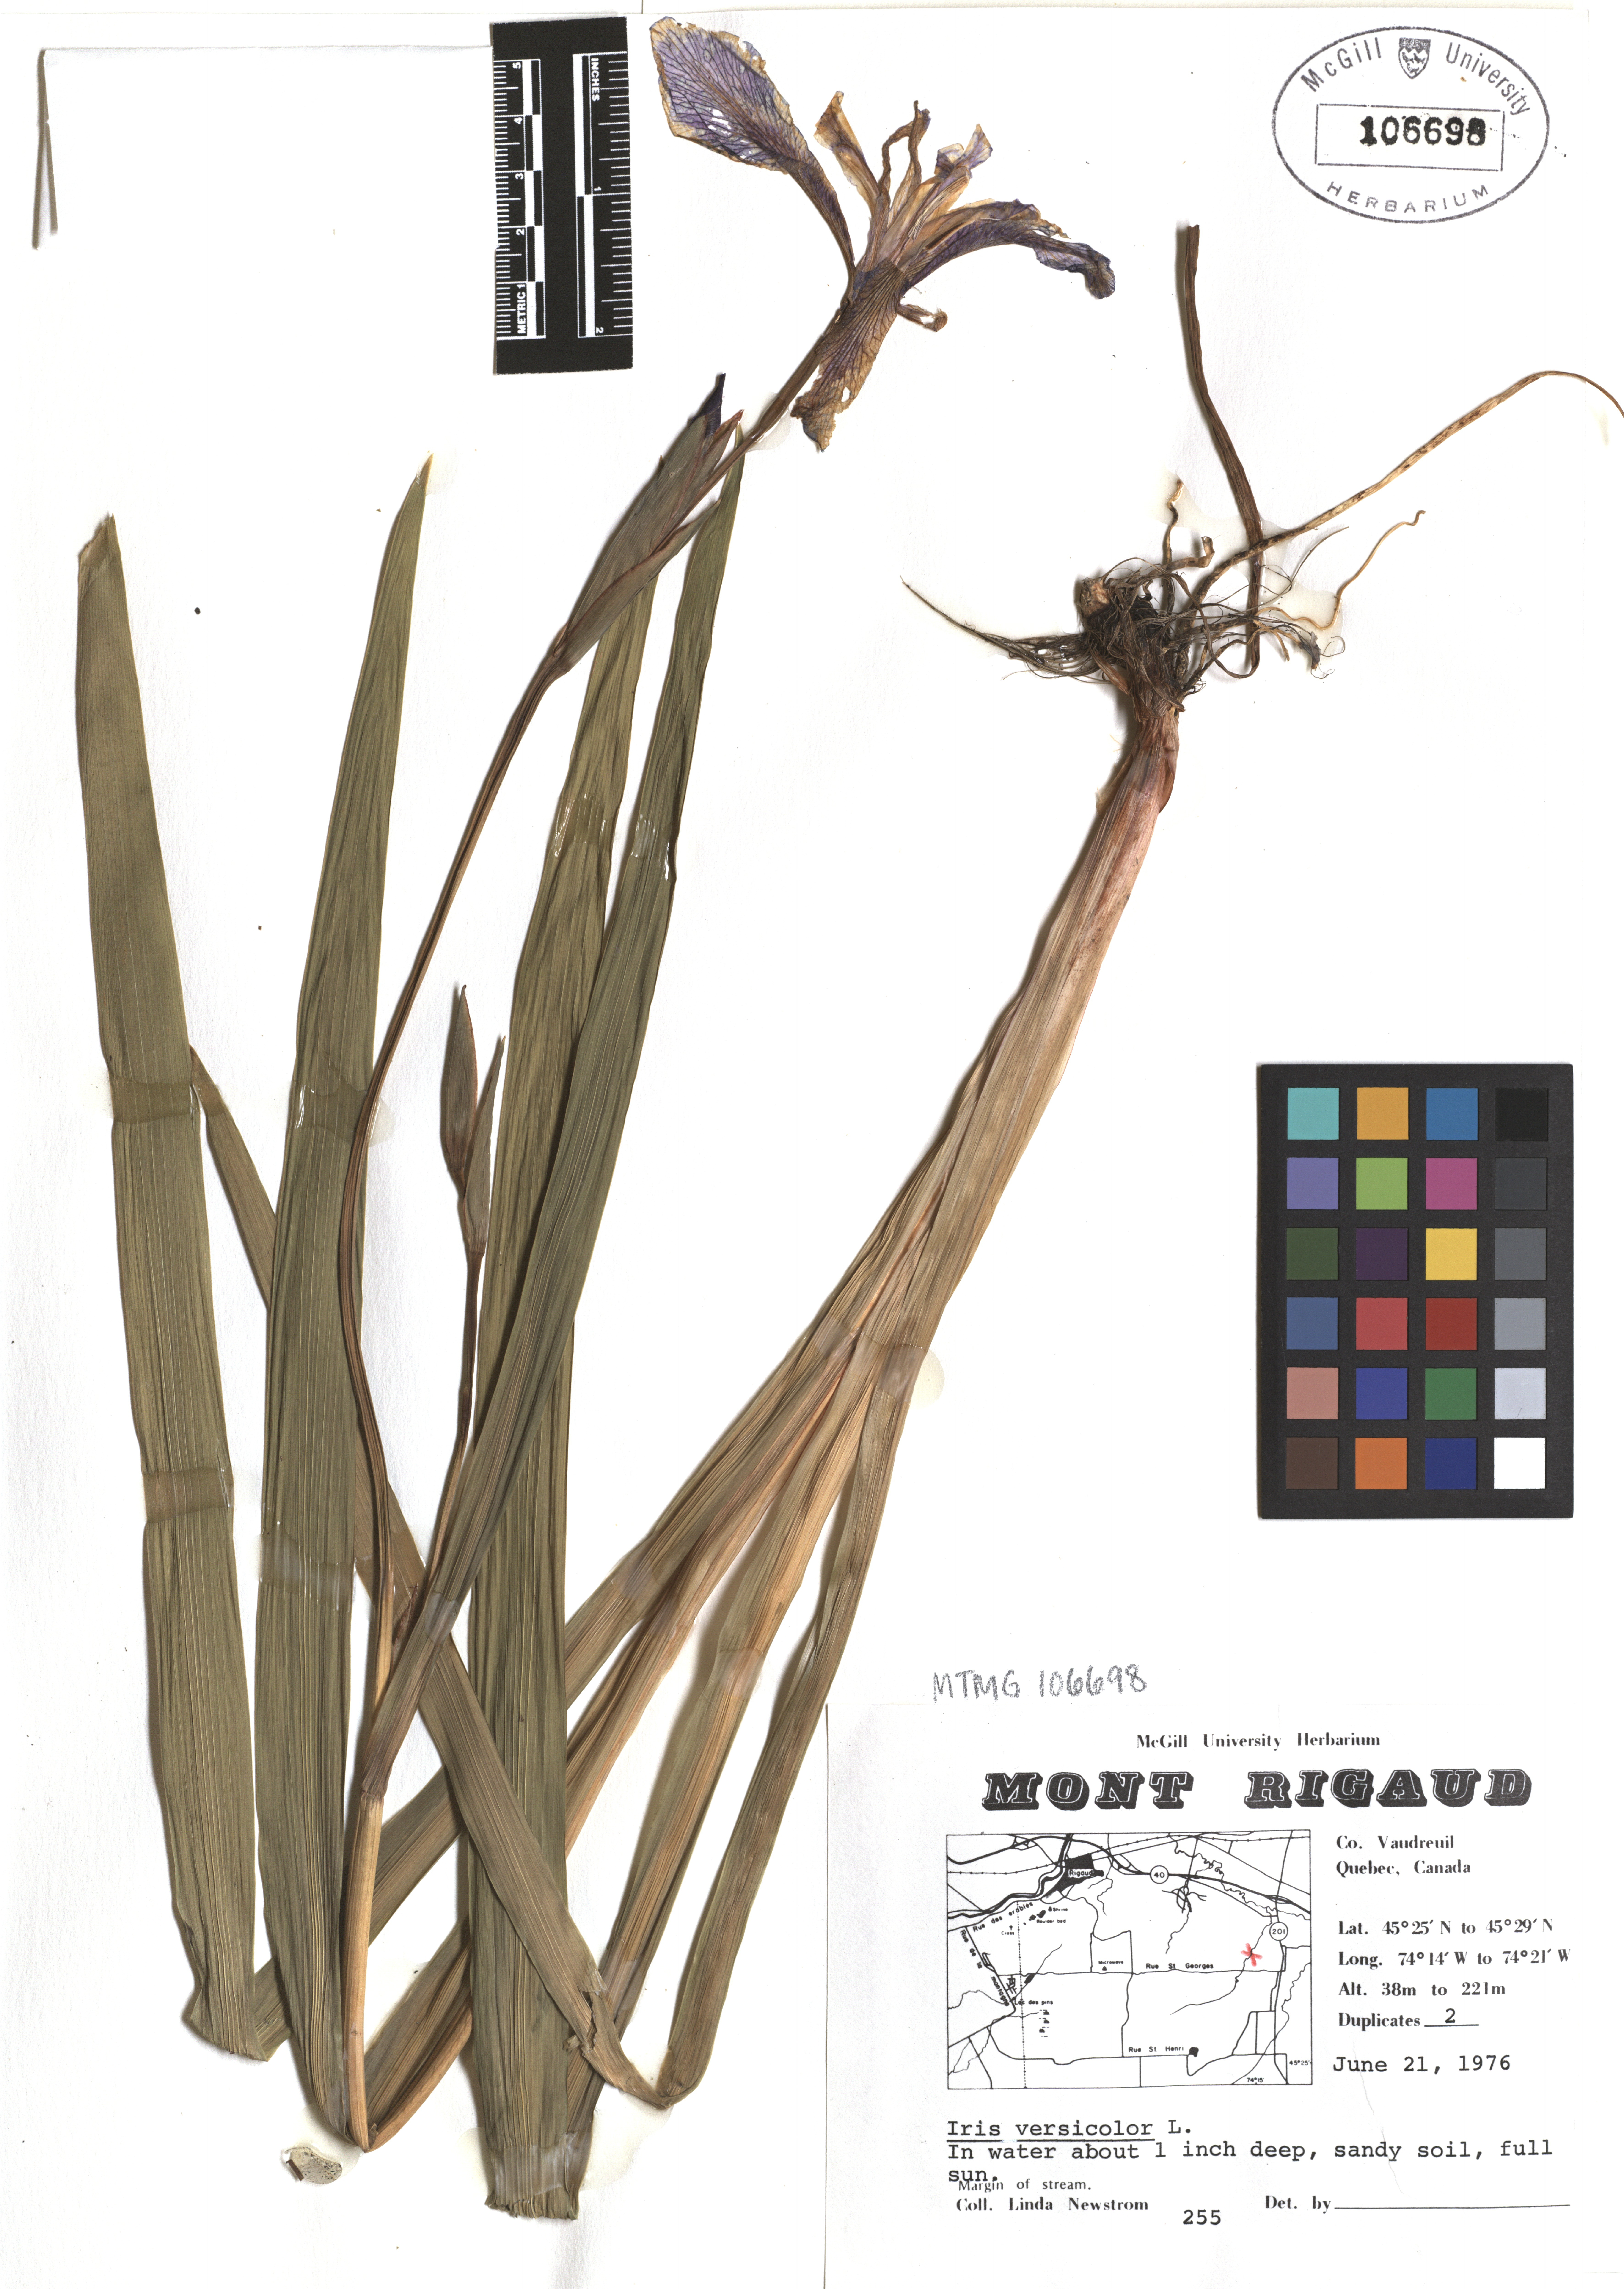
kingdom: Plantae
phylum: Tracheophyta
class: Liliopsida
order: Asparagales
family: Iridaceae
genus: Iris
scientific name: Iris versicolor
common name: Purple iris
